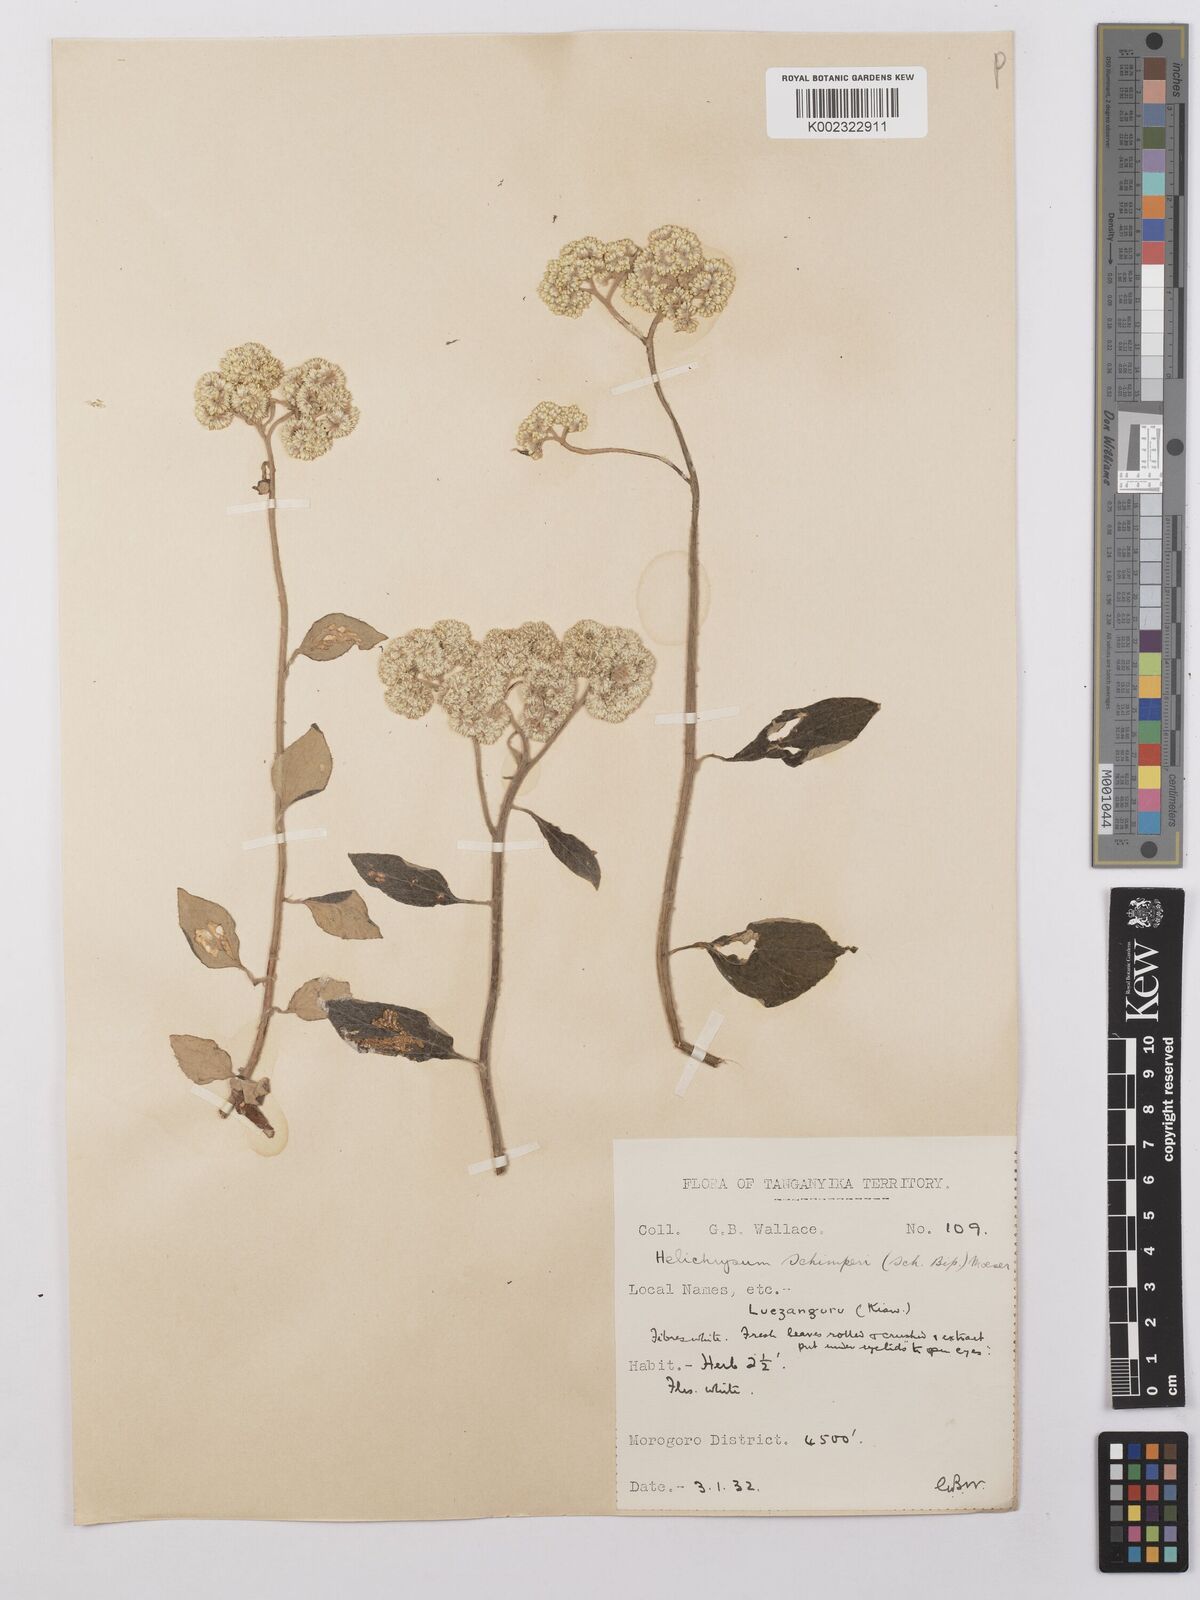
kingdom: Plantae
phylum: Tracheophyta
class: Magnoliopsida
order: Asterales
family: Asteraceae
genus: Helichrysum
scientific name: Helichrysum schimperi
